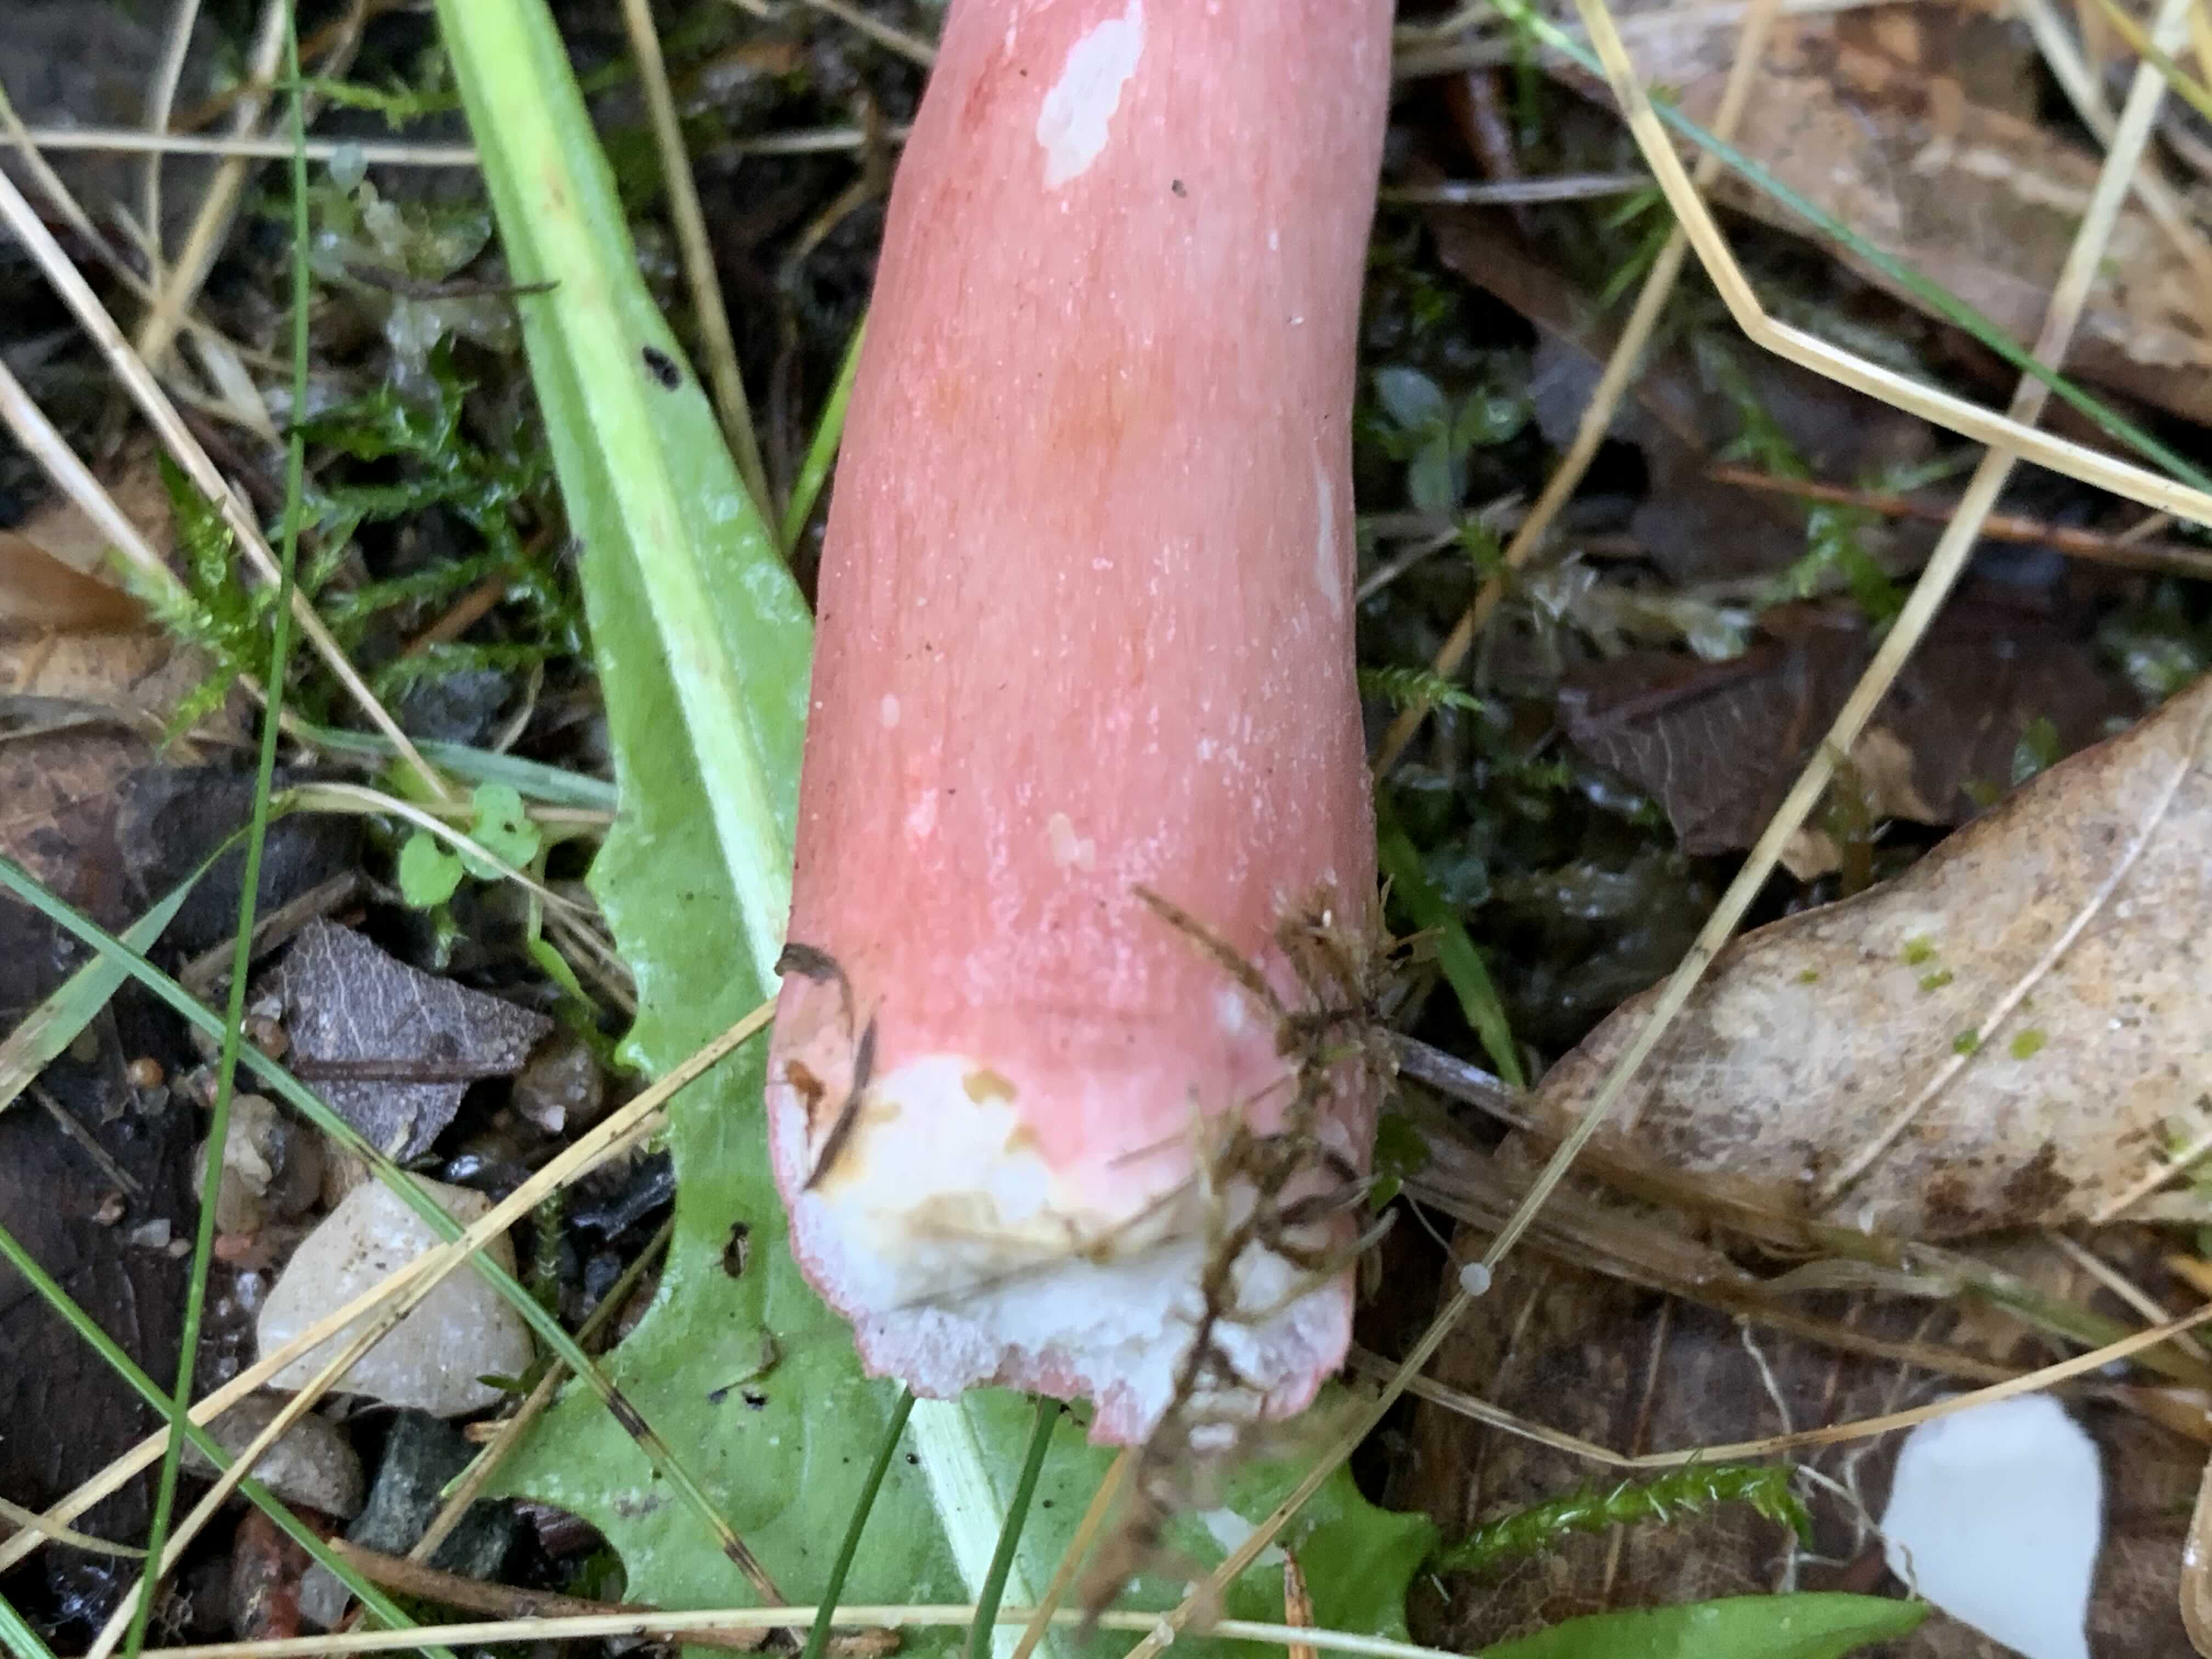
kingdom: Fungi
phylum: Basidiomycota
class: Agaricomycetes
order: Russulales
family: Russulaceae
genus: Russula
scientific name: Russula queletii
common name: Quélets skørhat
